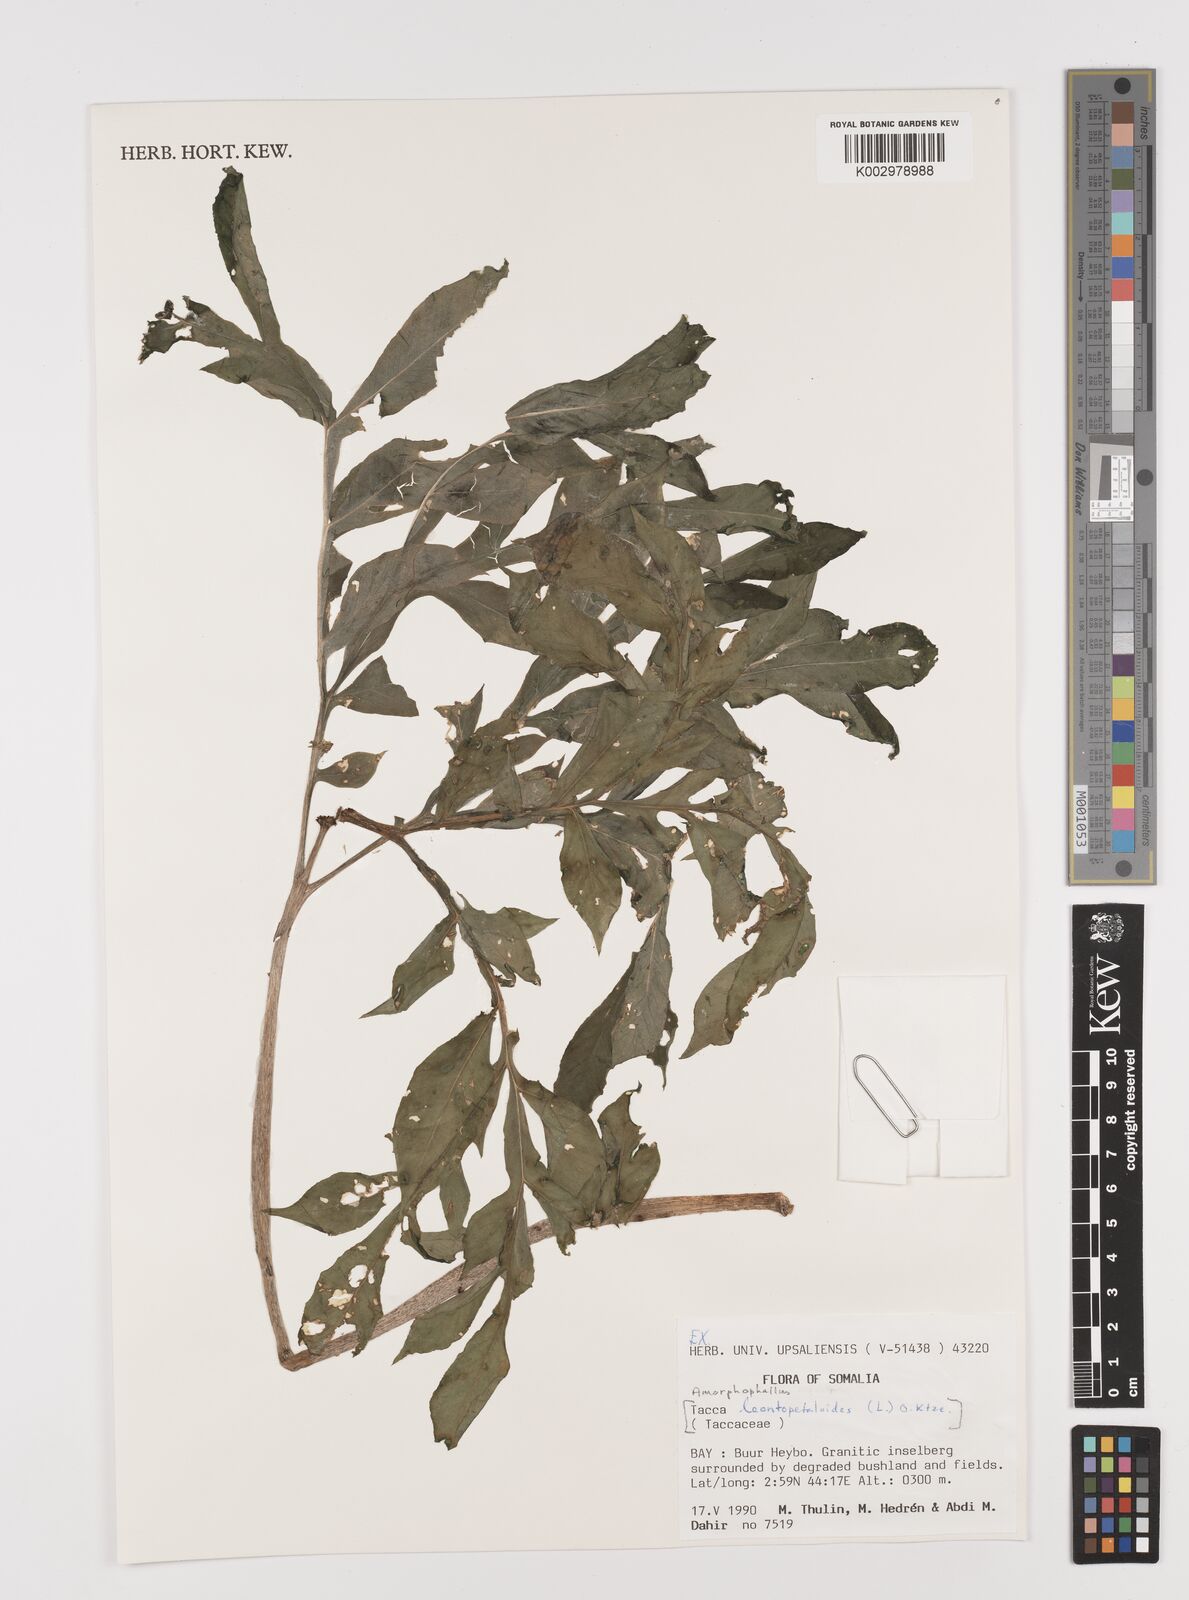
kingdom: Plantae
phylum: Tracheophyta
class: Liliopsida
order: Alismatales
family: Araceae
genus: Amorphophallus
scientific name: Amorphophallus
